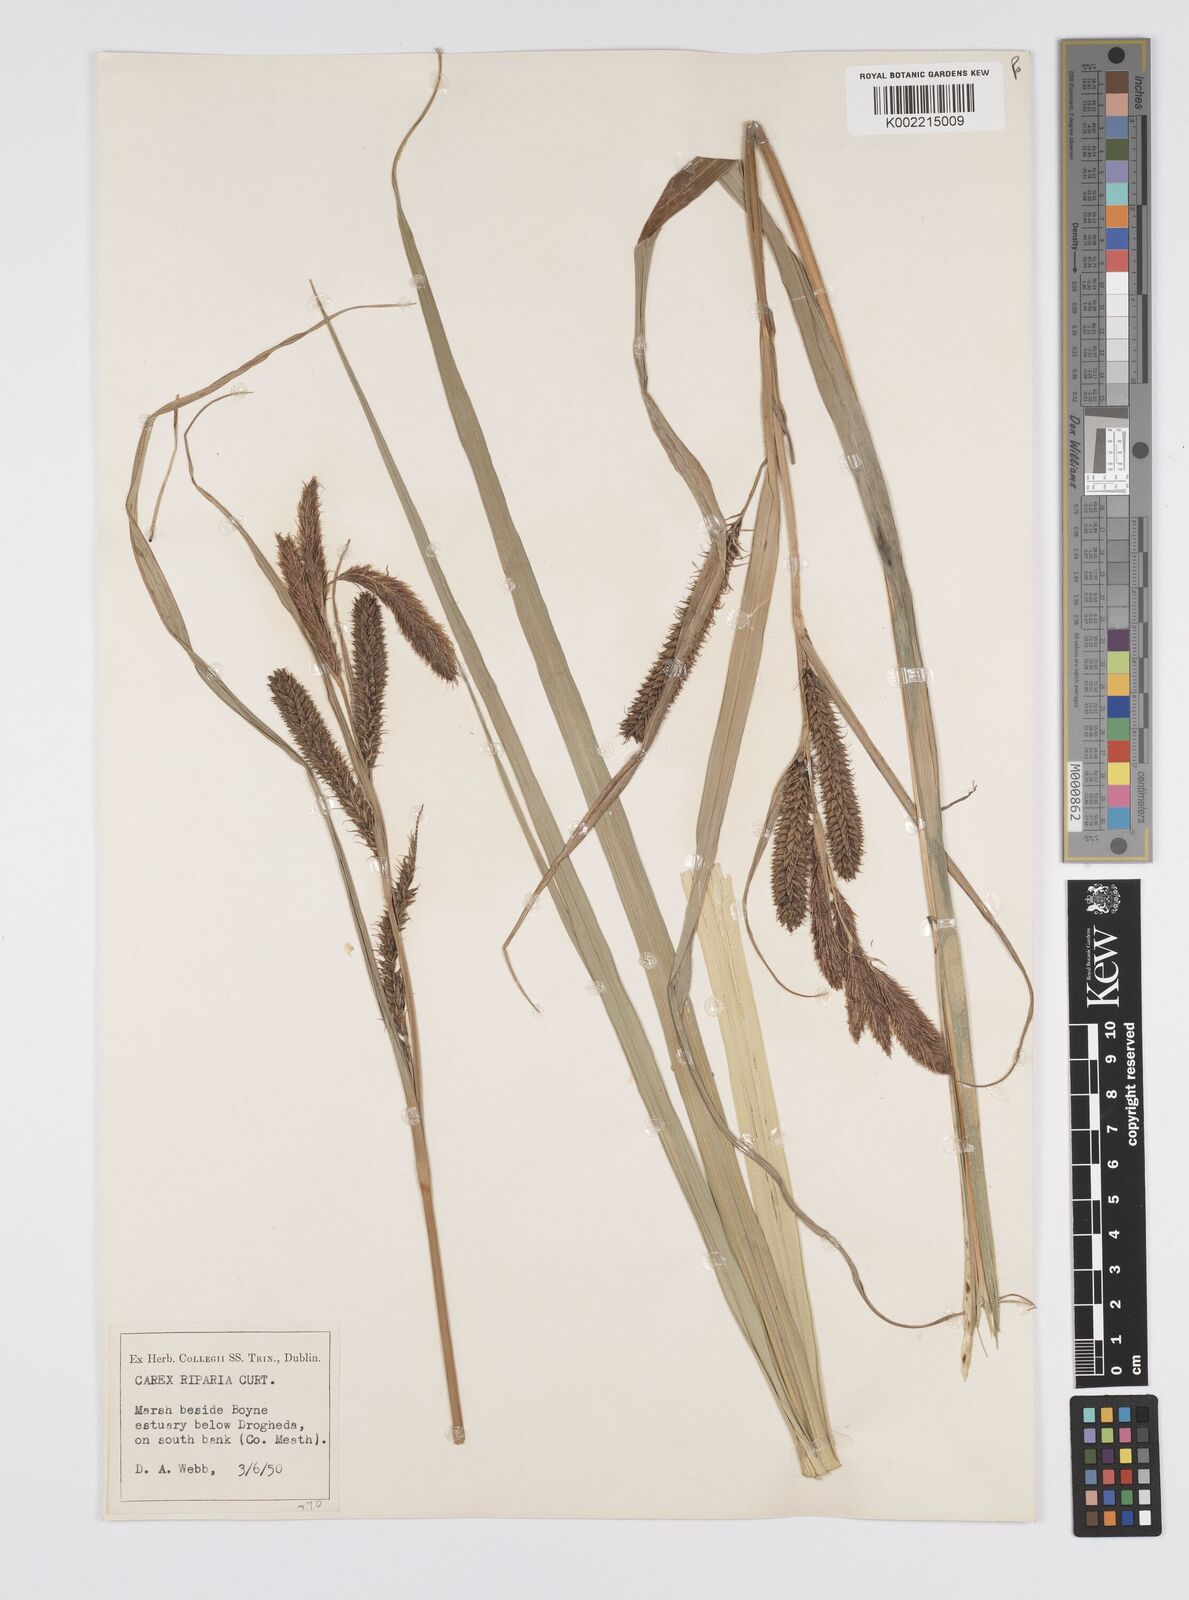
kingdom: Plantae
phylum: Tracheophyta
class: Liliopsida
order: Poales
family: Cyperaceae
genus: Carex
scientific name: Carex riparia
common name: Greater pond-sedge
